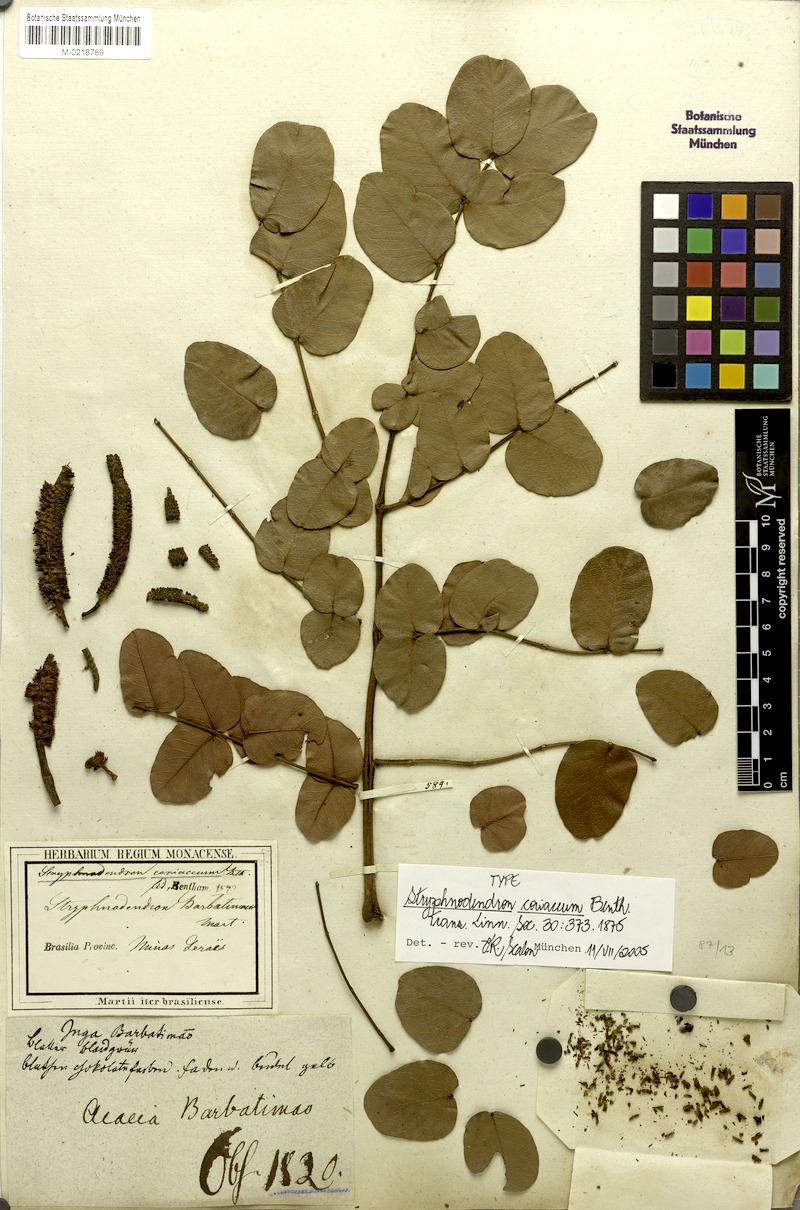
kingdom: Plantae
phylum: Tracheophyta
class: Magnoliopsida
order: Fabales
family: Fabaceae
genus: Stryphnodendron
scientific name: Stryphnodendron coriaceum
